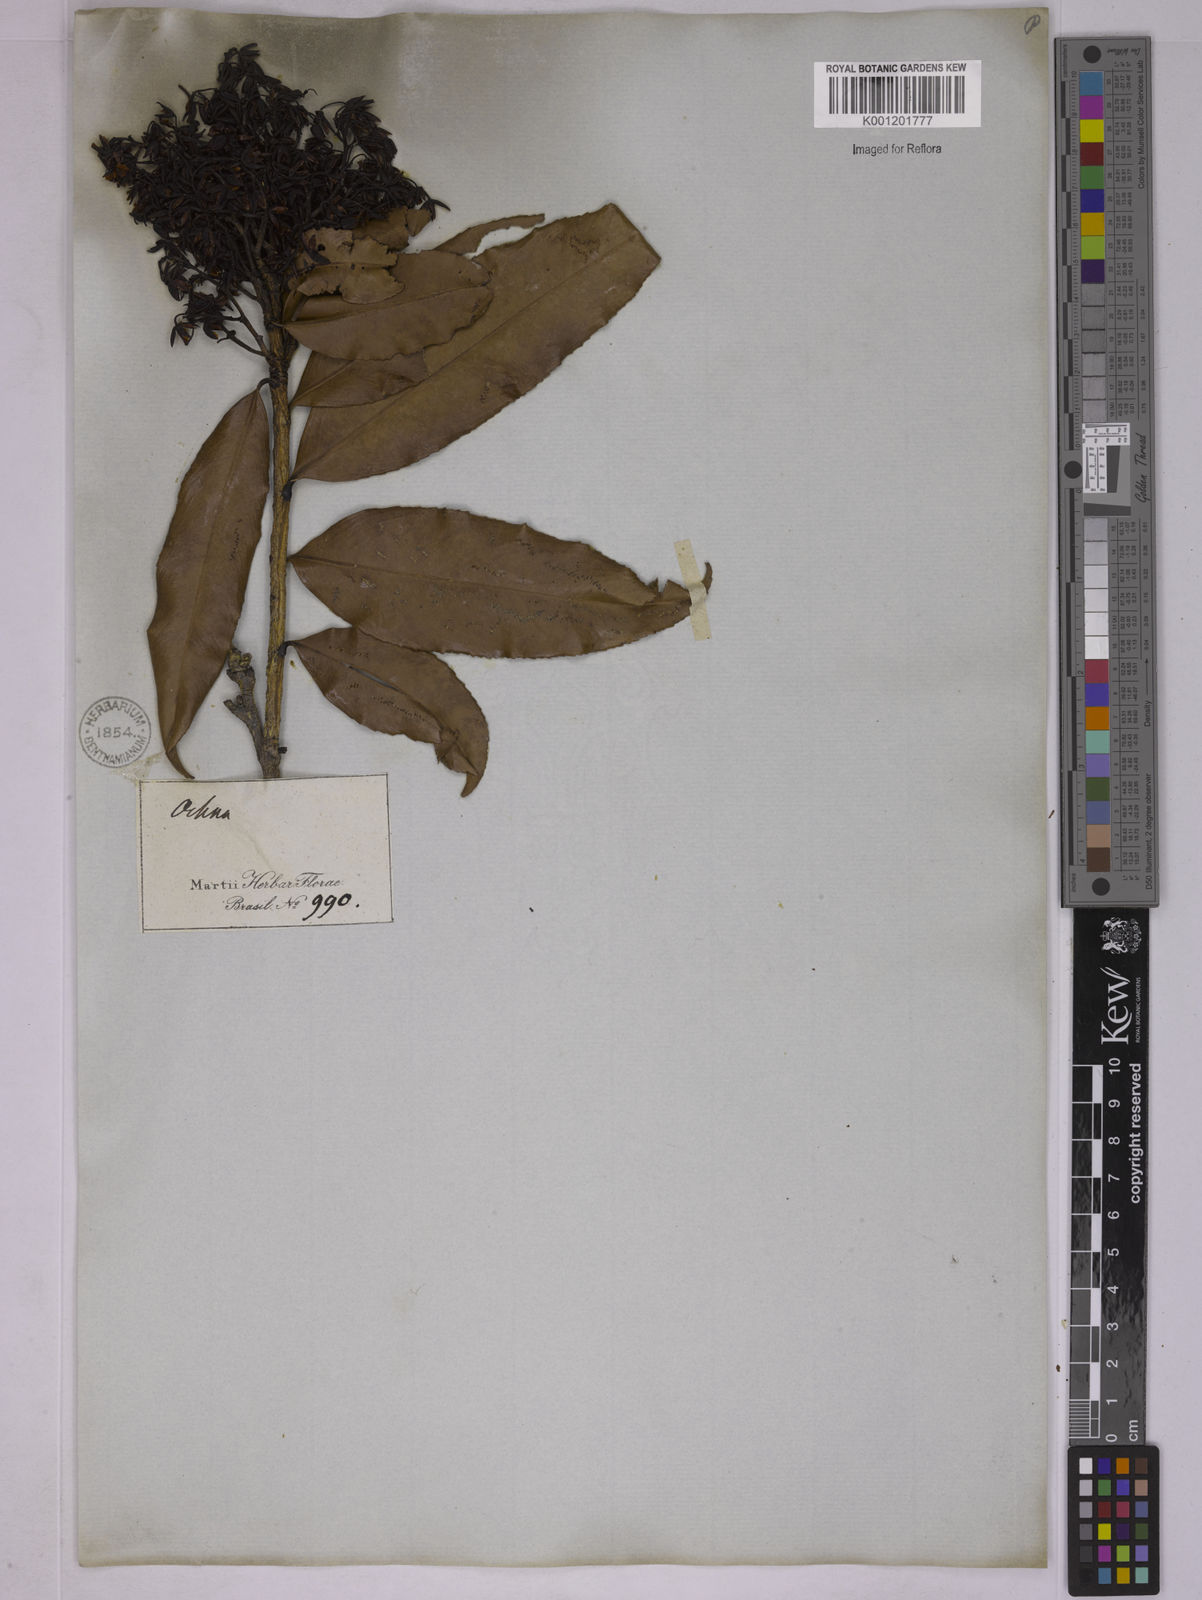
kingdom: Plantae
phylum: Tracheophyta
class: Magnoliopsida
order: Malpighiales
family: Ochnaceae
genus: Ouratea
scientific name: Ouratea semiserrata
